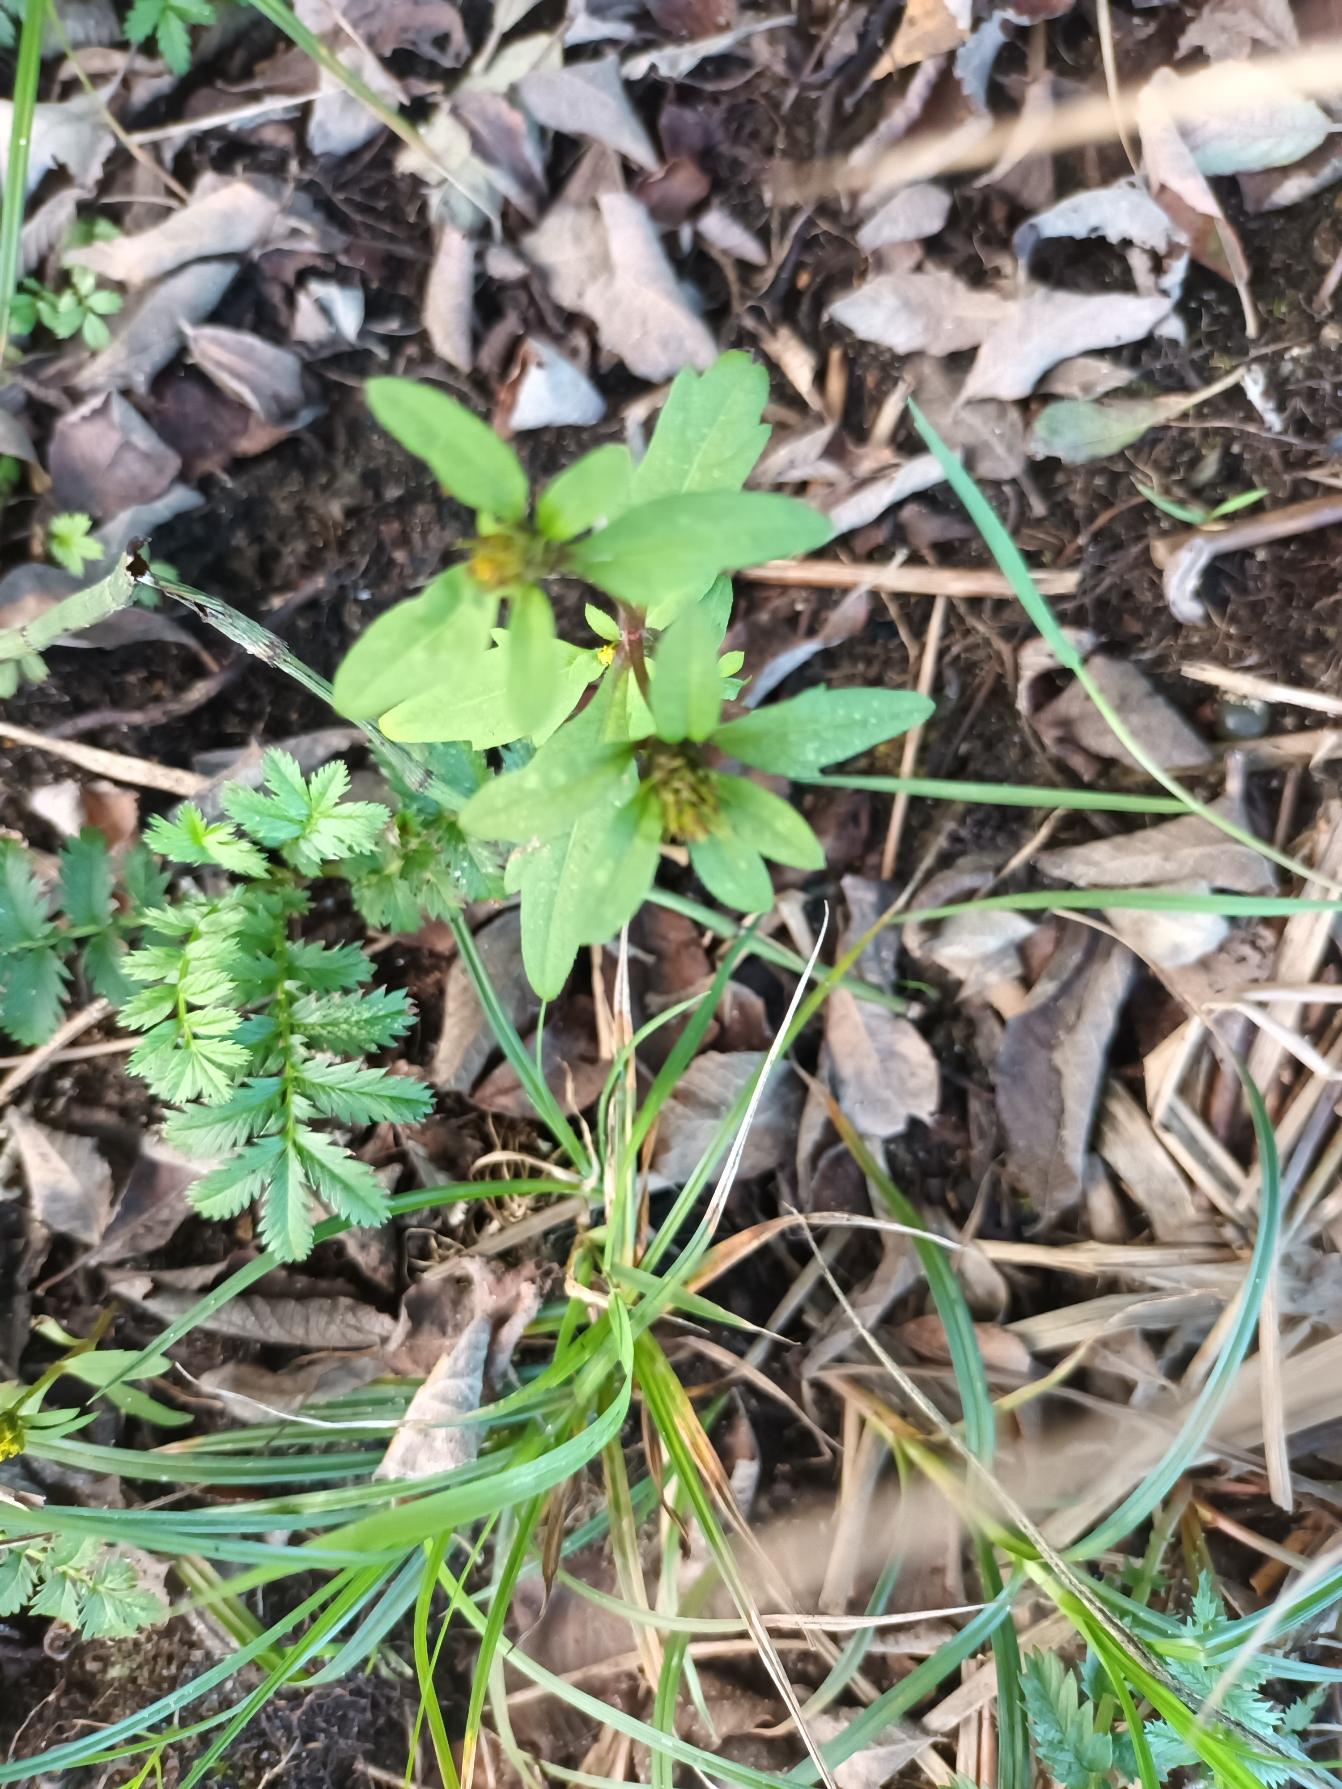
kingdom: Plantae
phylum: Tracheophyta
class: Magnoliopsida
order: Asterales
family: Asteraceae
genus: Bidens
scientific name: Bidens tripartita
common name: Fliget brøndsel
